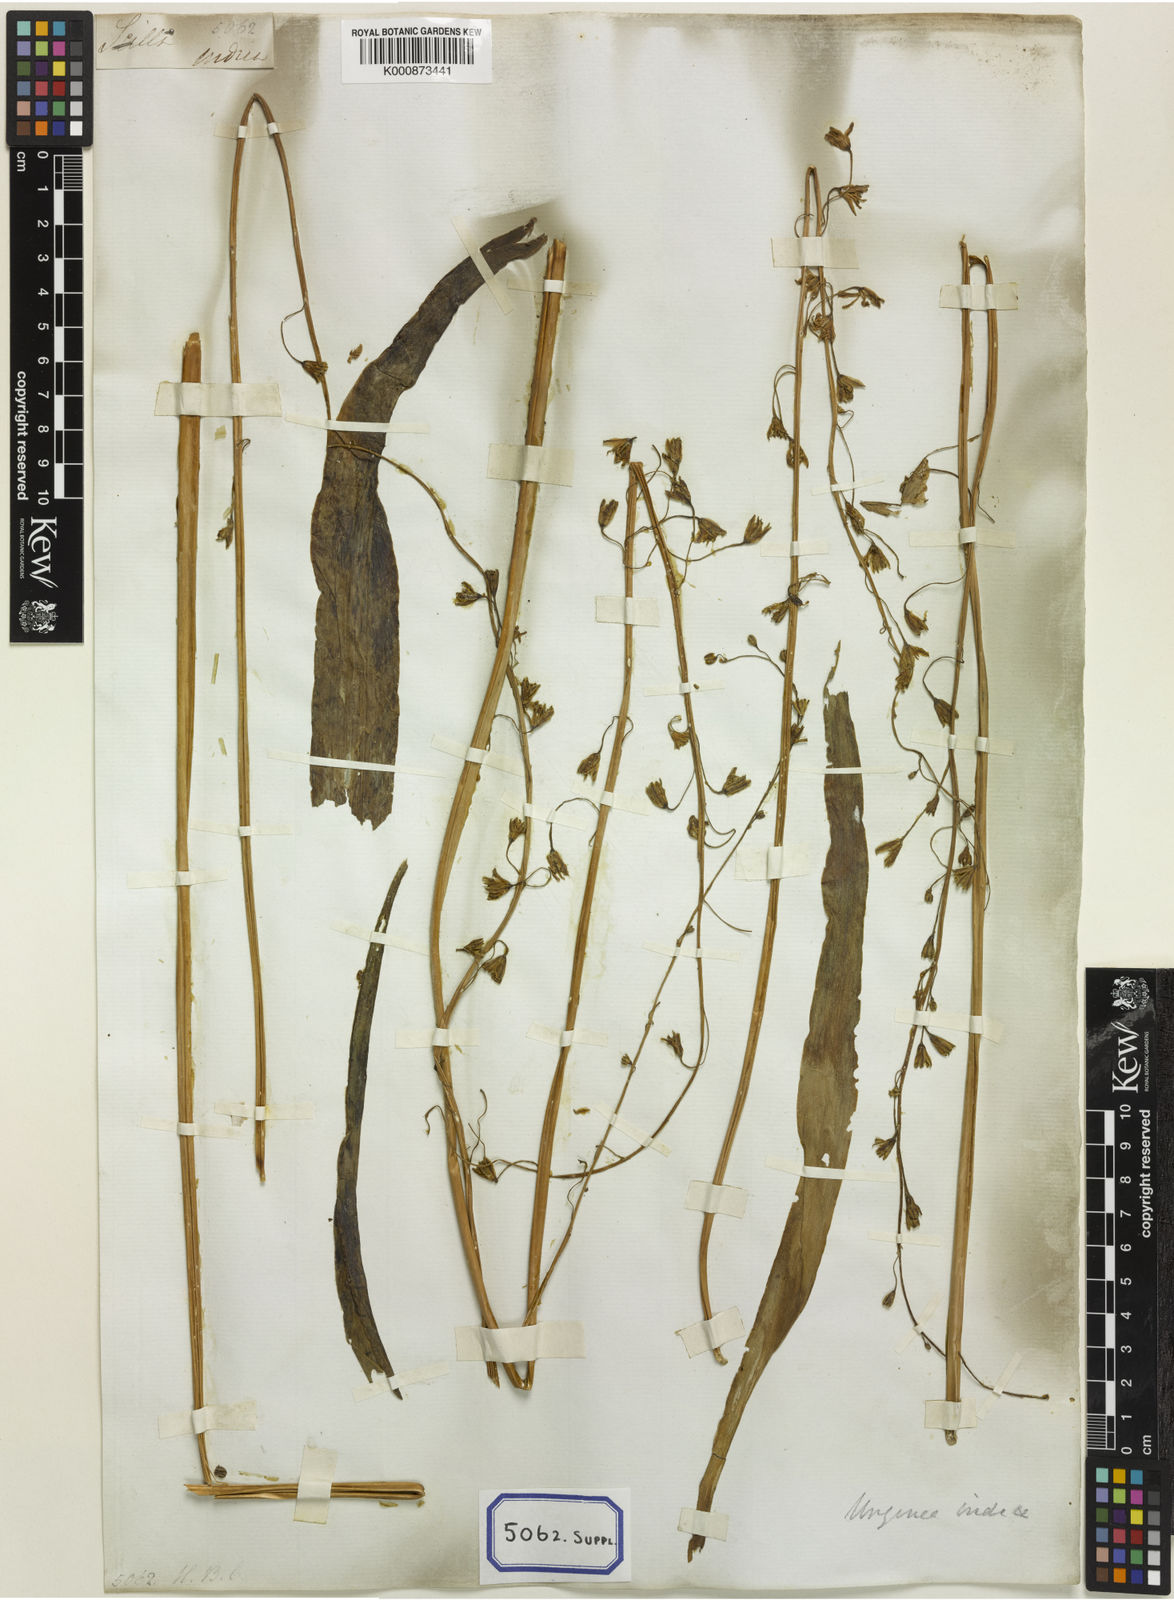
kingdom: Plantae
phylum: Tracheophyta
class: Liliopsida
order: Asparagales
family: Asparagaceae
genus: Drimia
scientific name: Drimia indica
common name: Indian-squill
